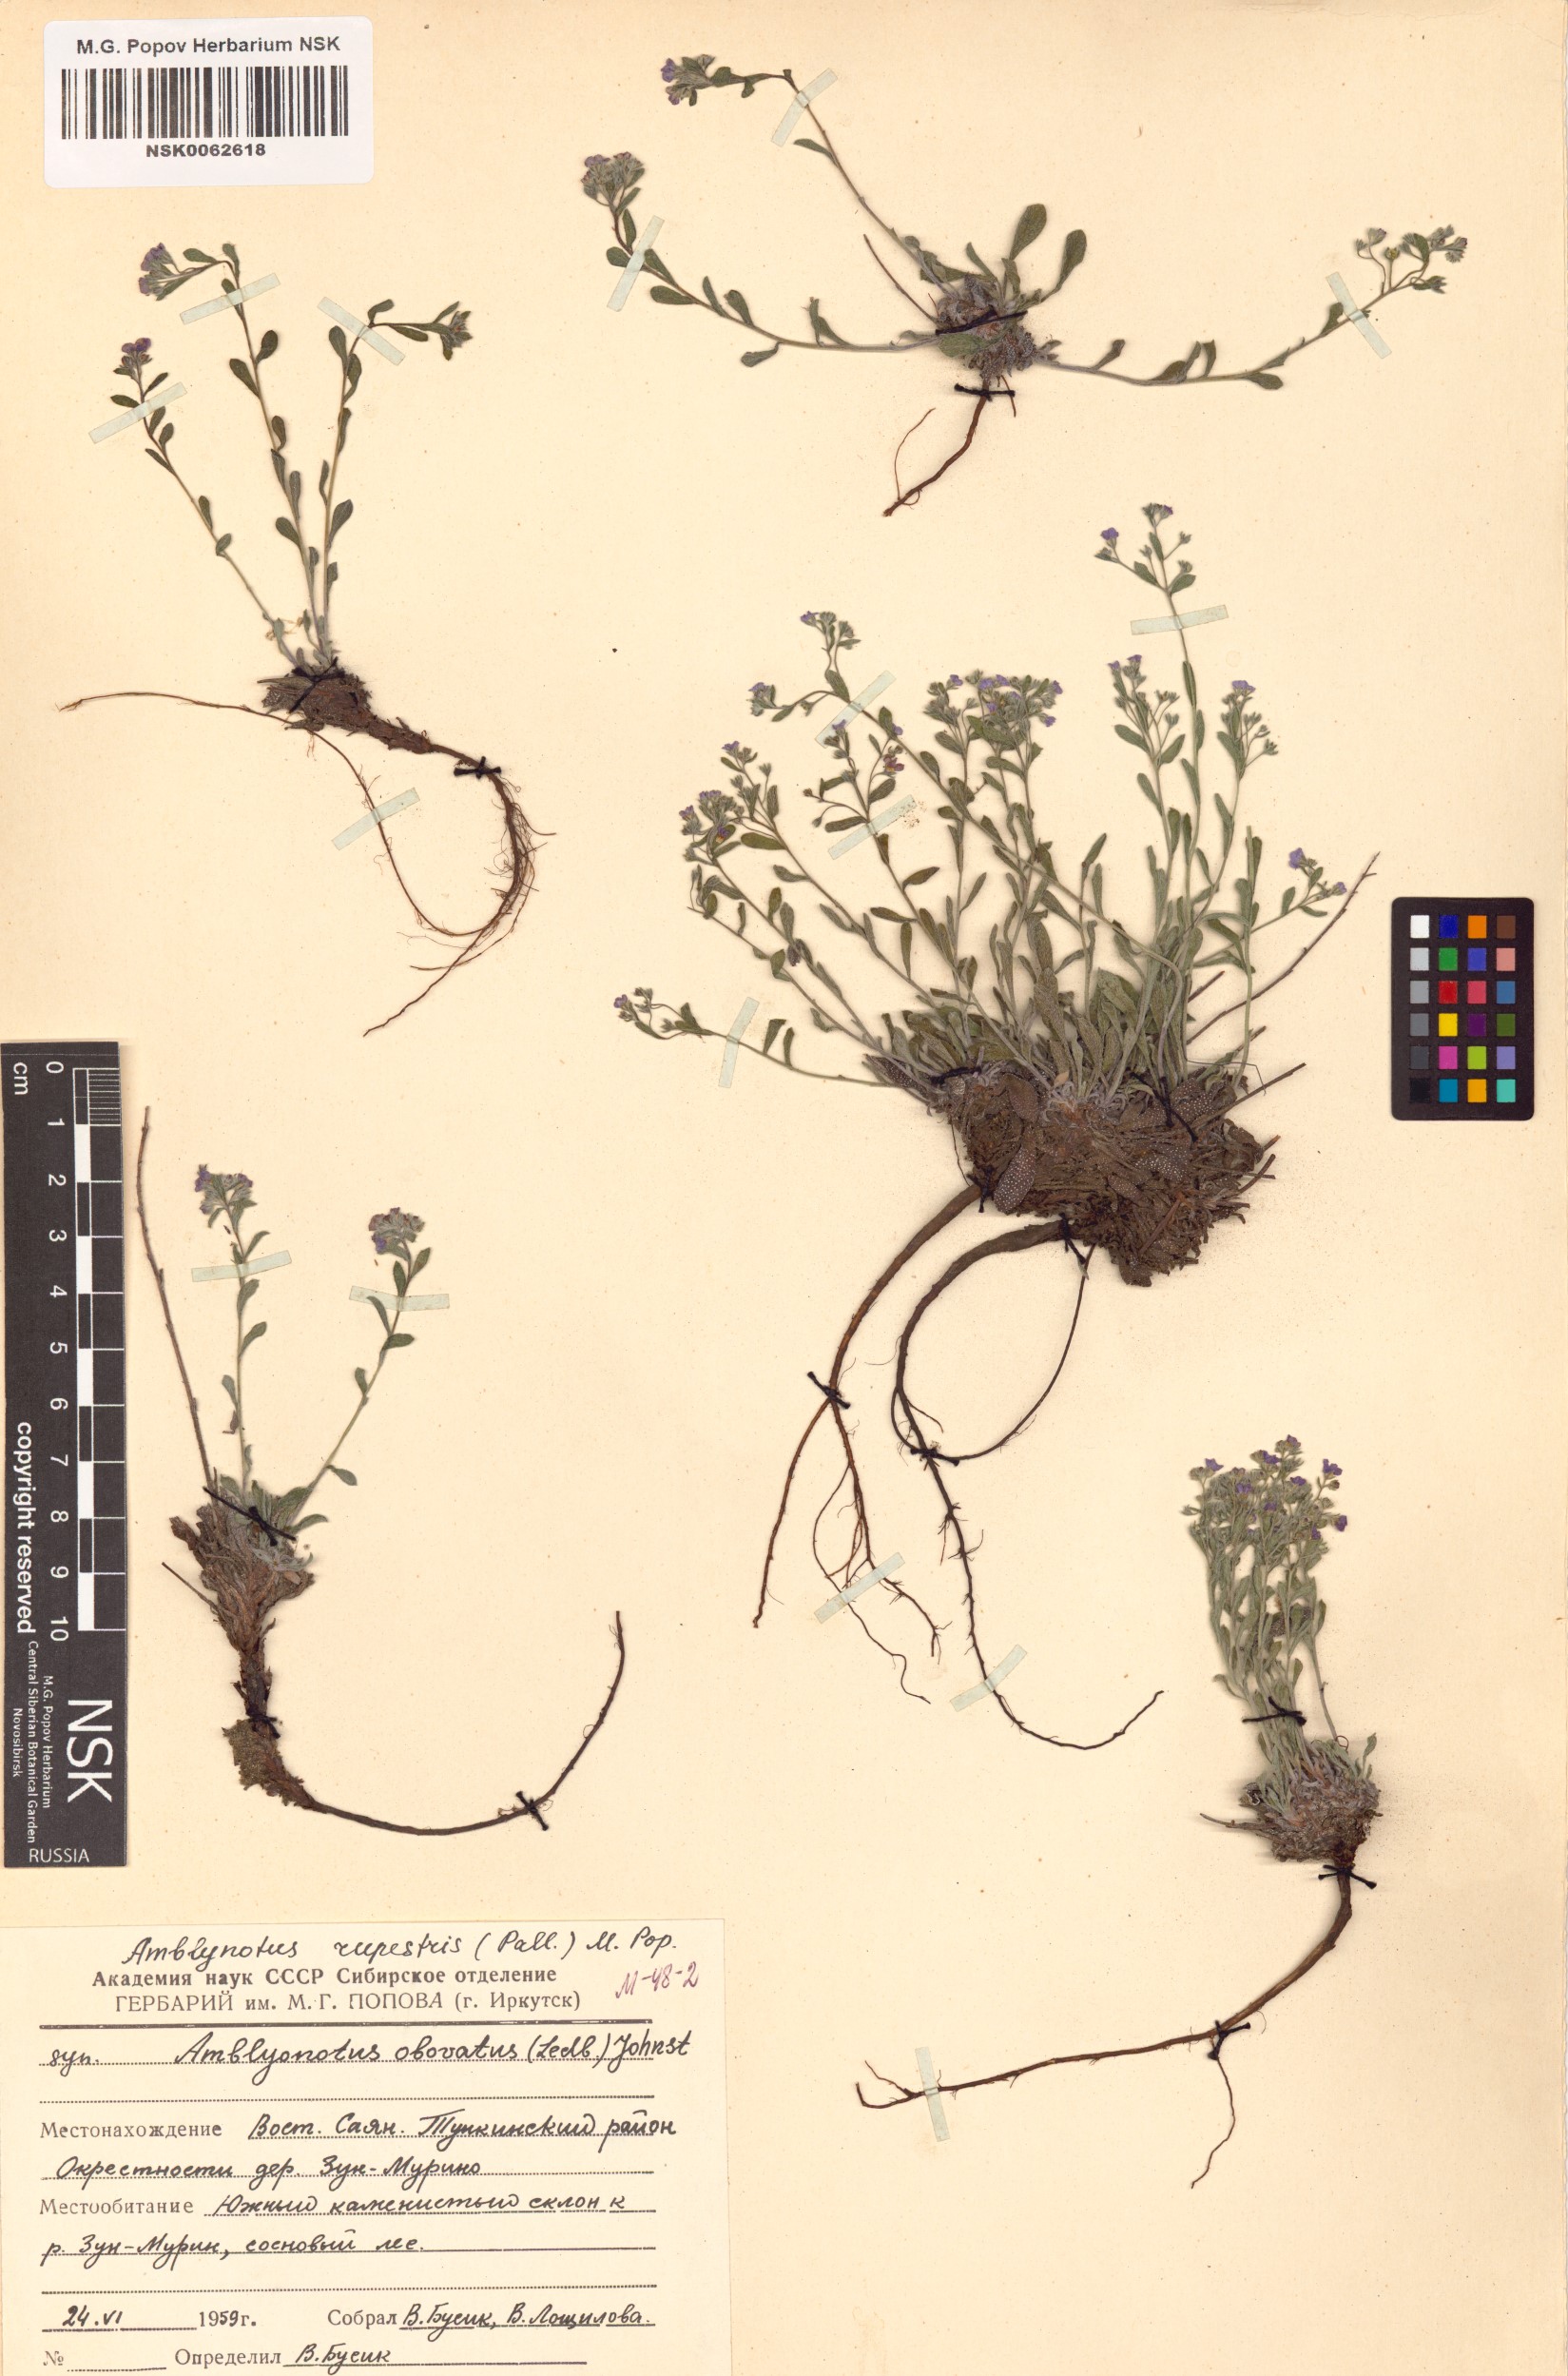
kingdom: Plantae
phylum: Tracheophyta
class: Magnoliopsida
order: Boraginales
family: Boraginaceae
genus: Eritrichium
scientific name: Eritrichium rupestre
